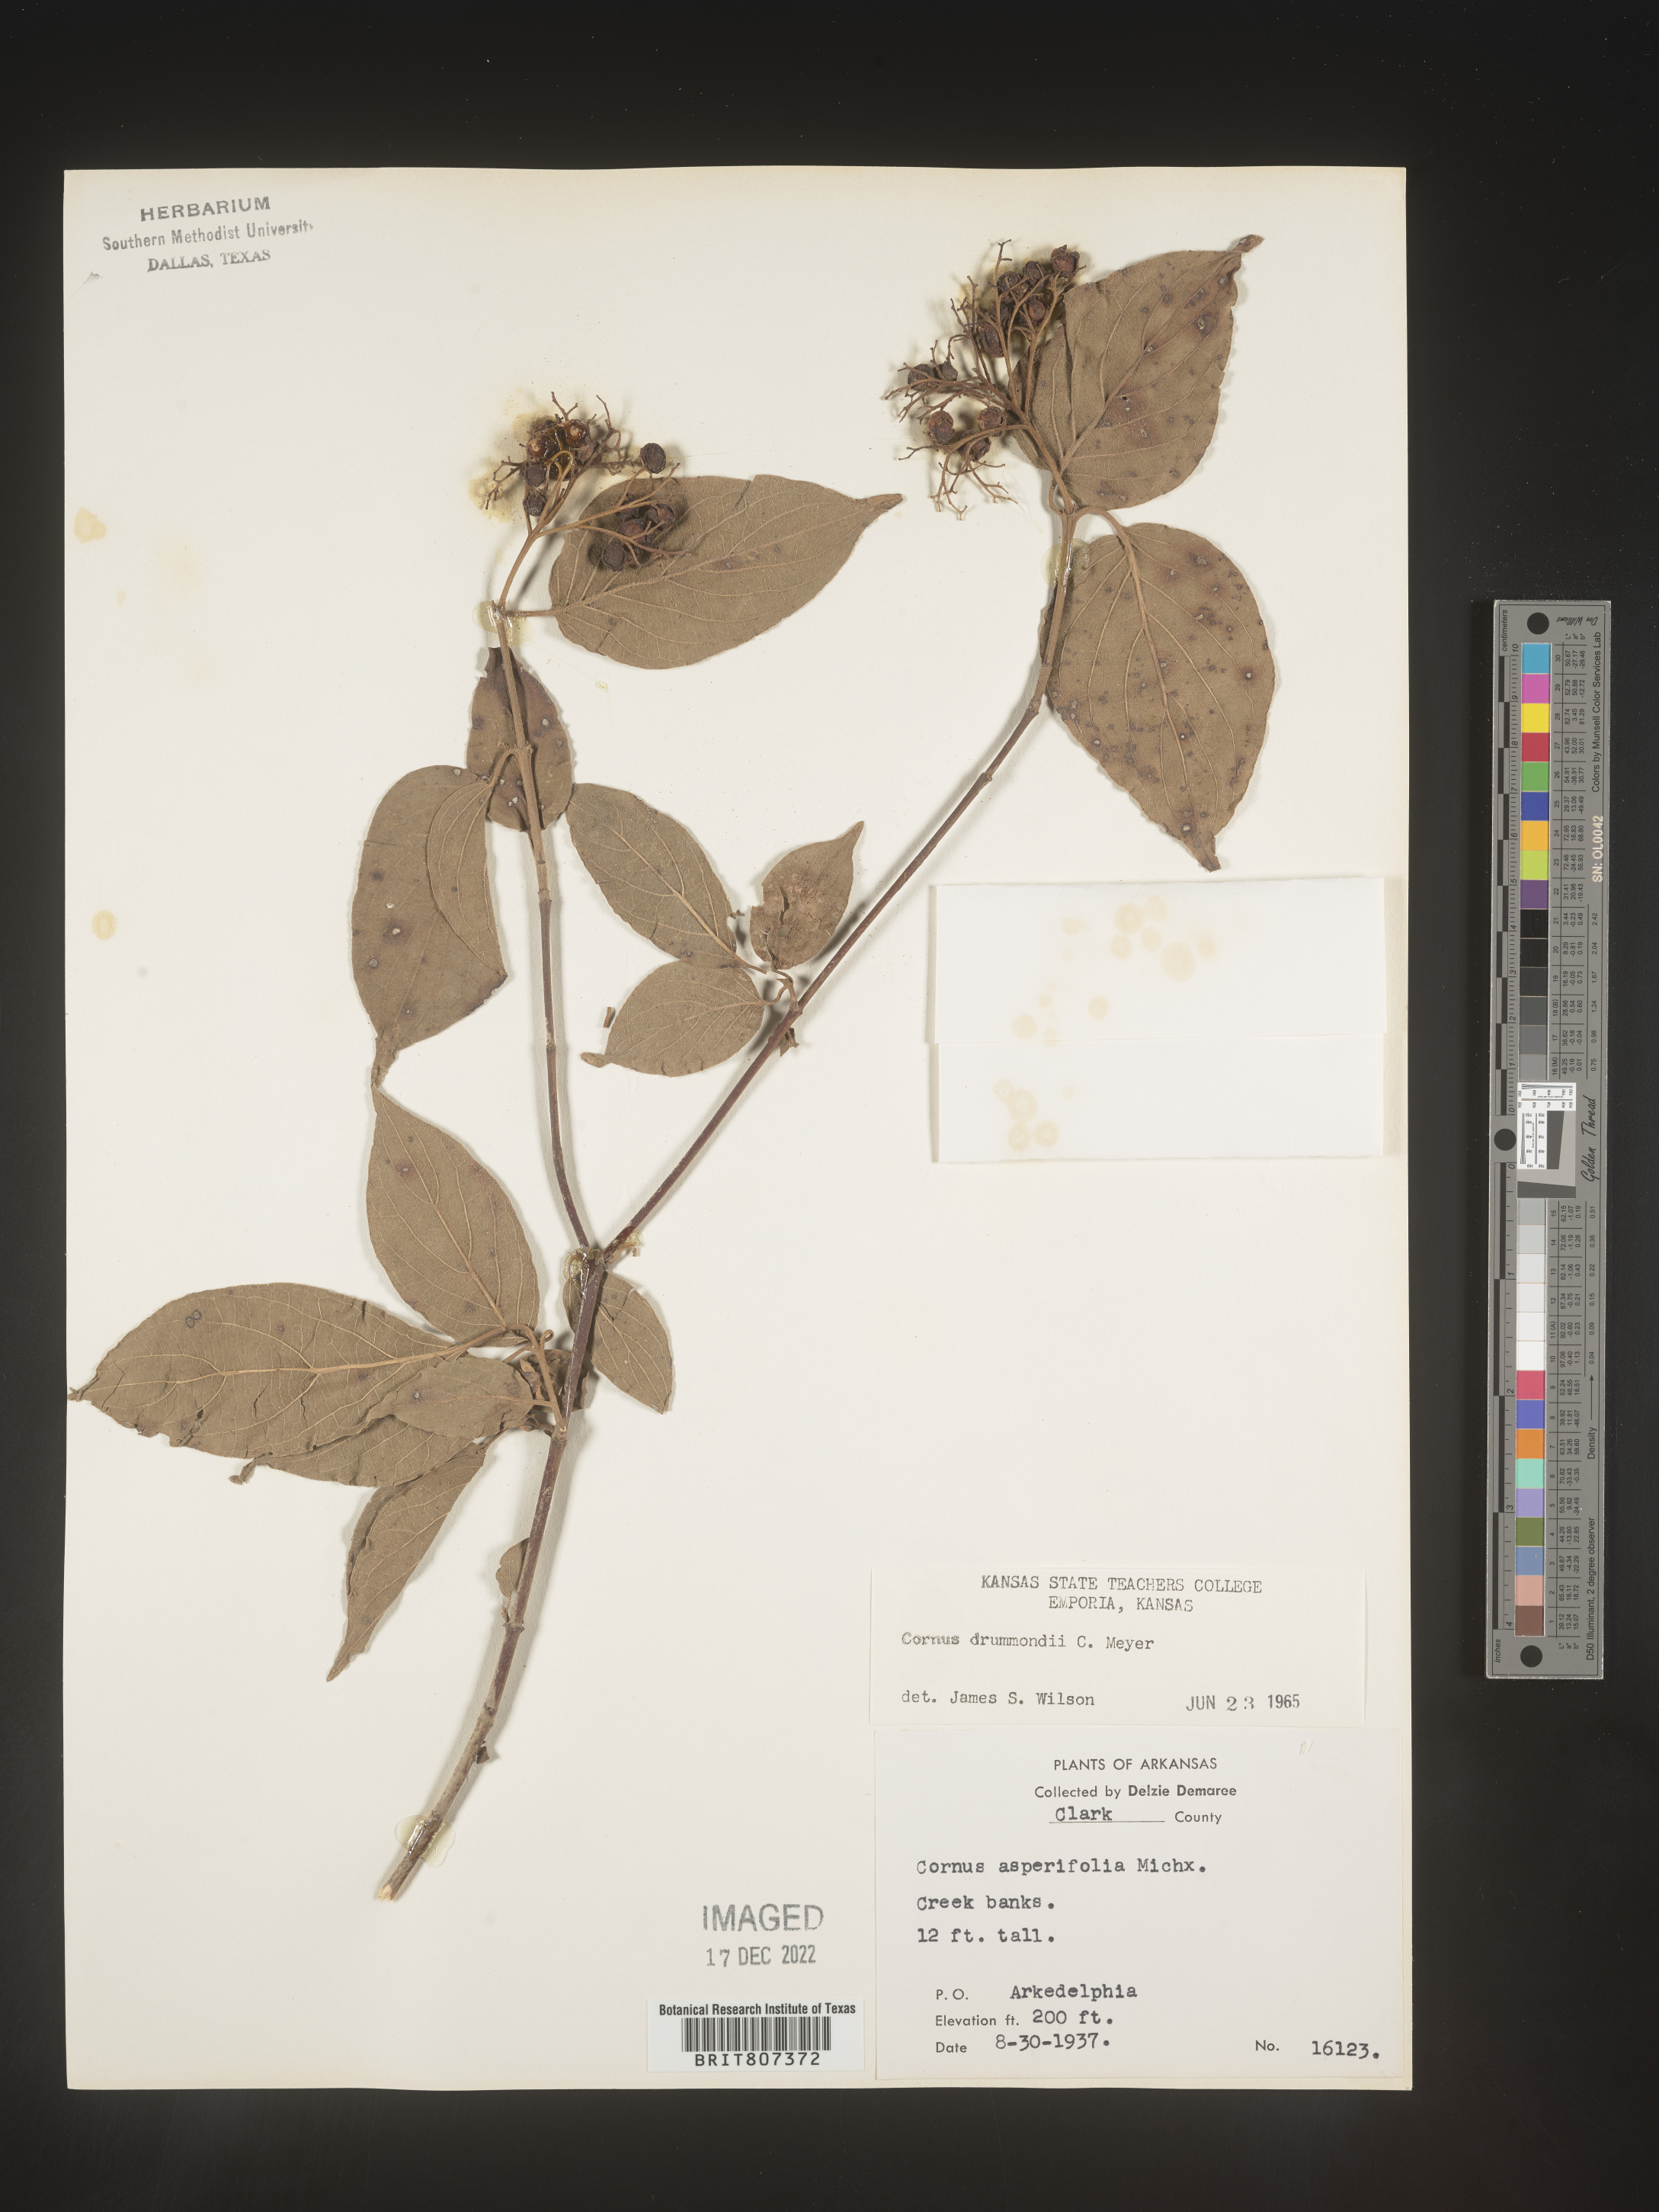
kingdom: Plantae
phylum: Tracheophyta
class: Magnoliopsida
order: Cornales
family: Cornaceae
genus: Cornus
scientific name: Cornus drummondii
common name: Rough-leaf dogwood
